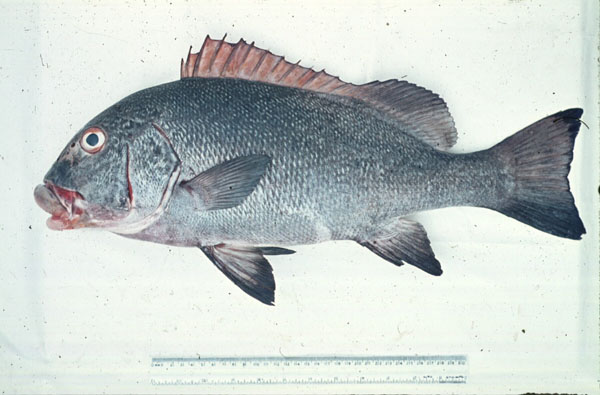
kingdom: Animalia
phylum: Chordata
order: Perciformes
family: Haemulidae
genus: Plectorhinchus
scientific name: Plectorhinchus albovittatus
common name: Giant sweetlips
